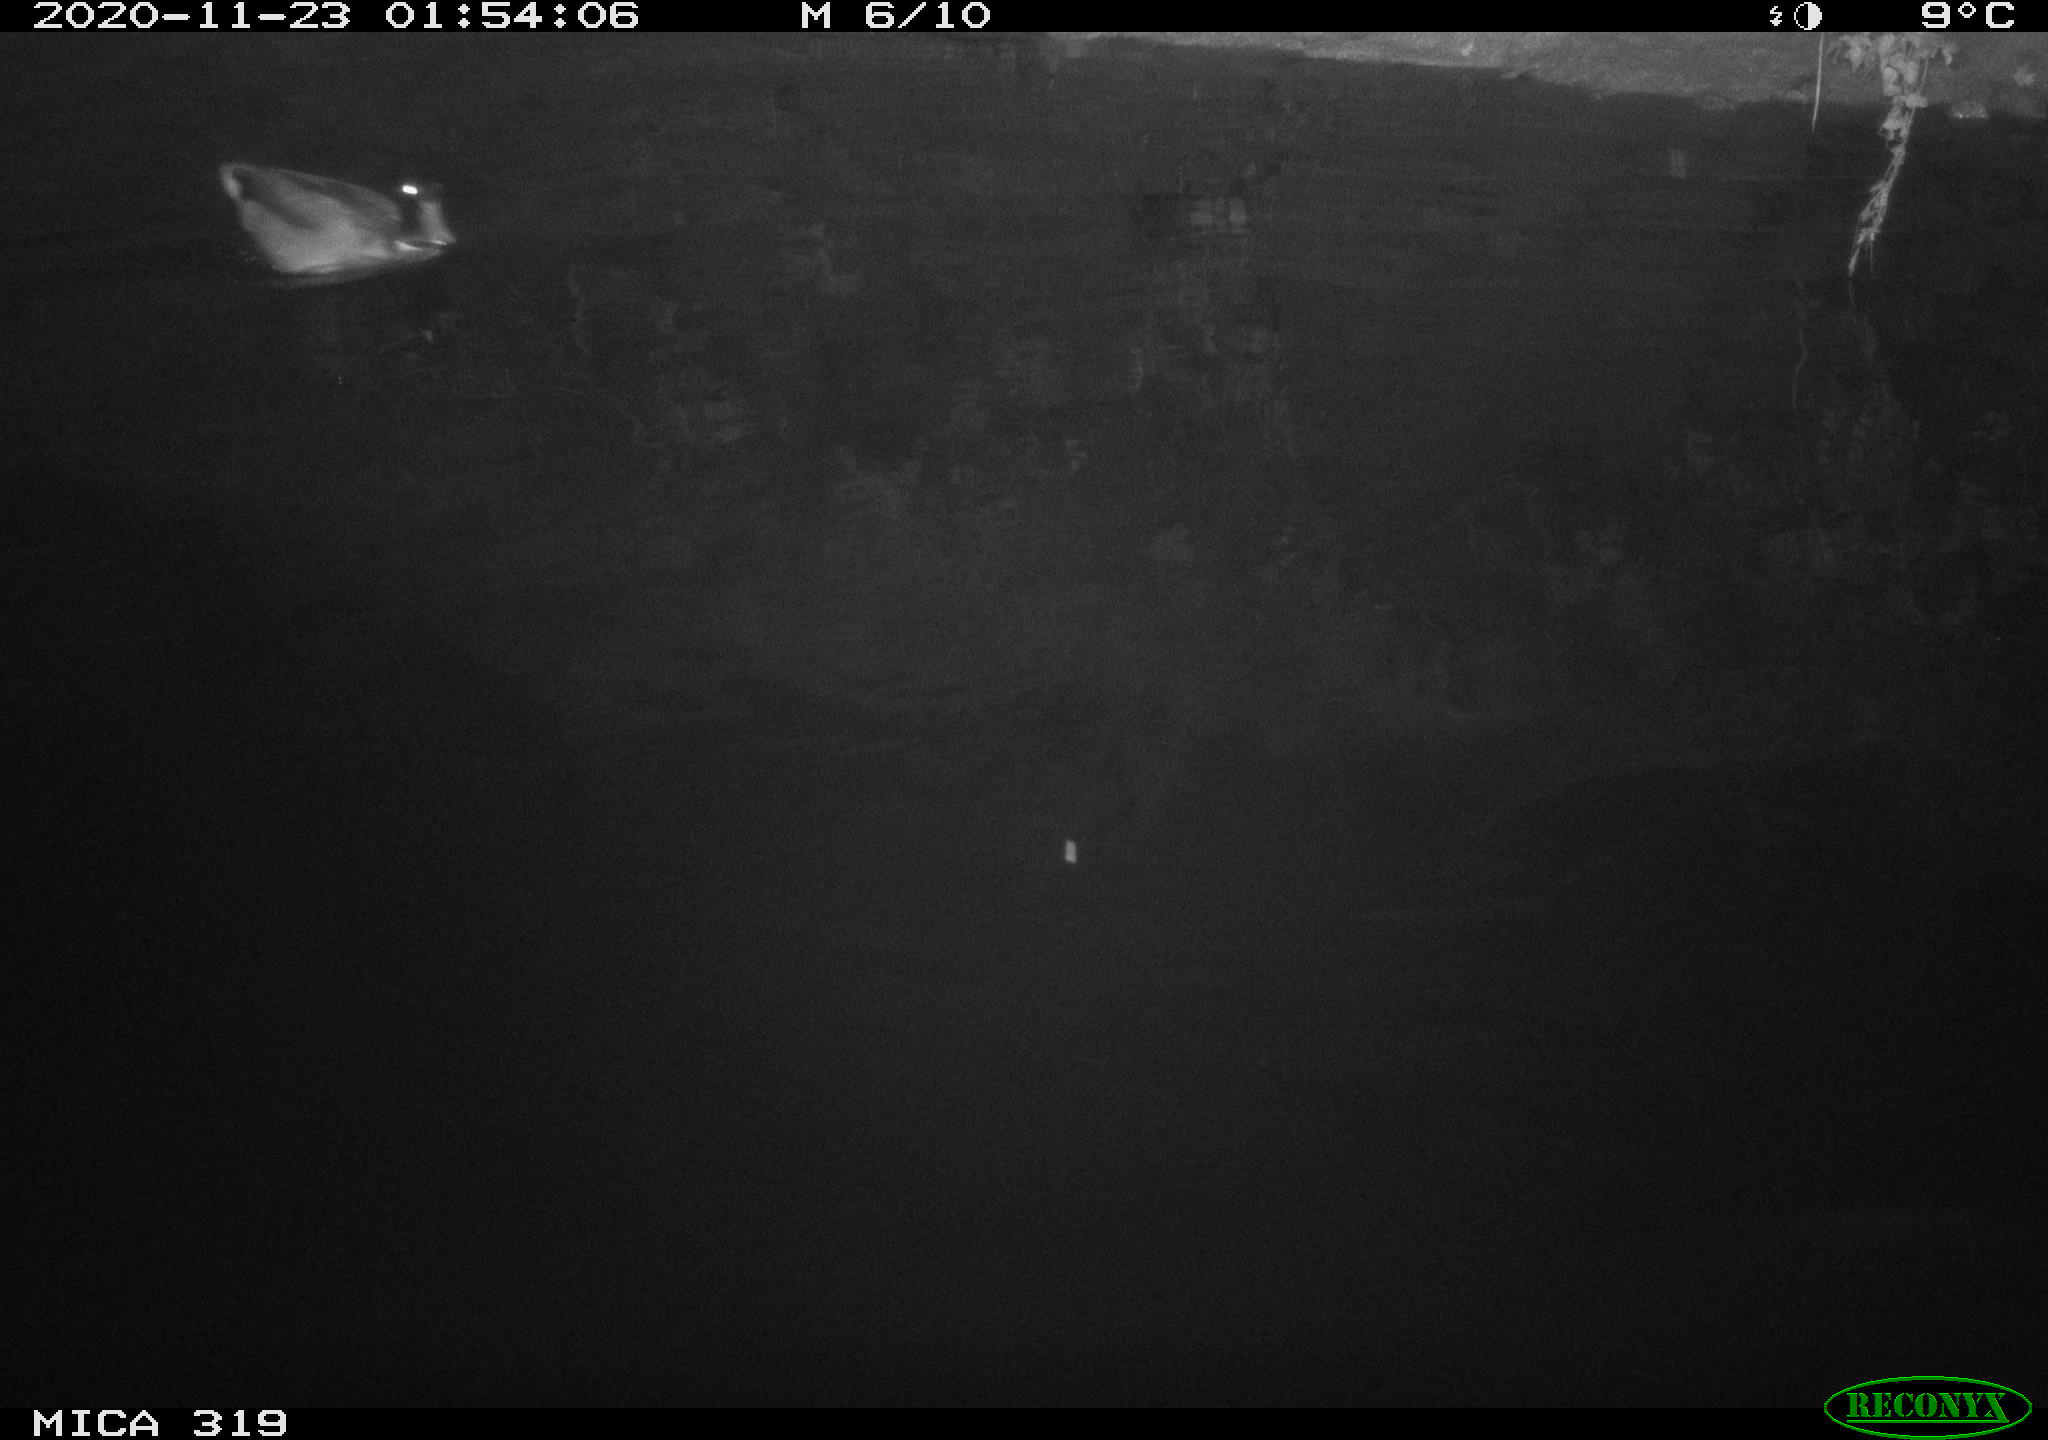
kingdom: Animalia
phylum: Chordata
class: Aves
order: Anseriformes
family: Anatidae
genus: Anas
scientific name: Anas platyrhynchos
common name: Mallard
